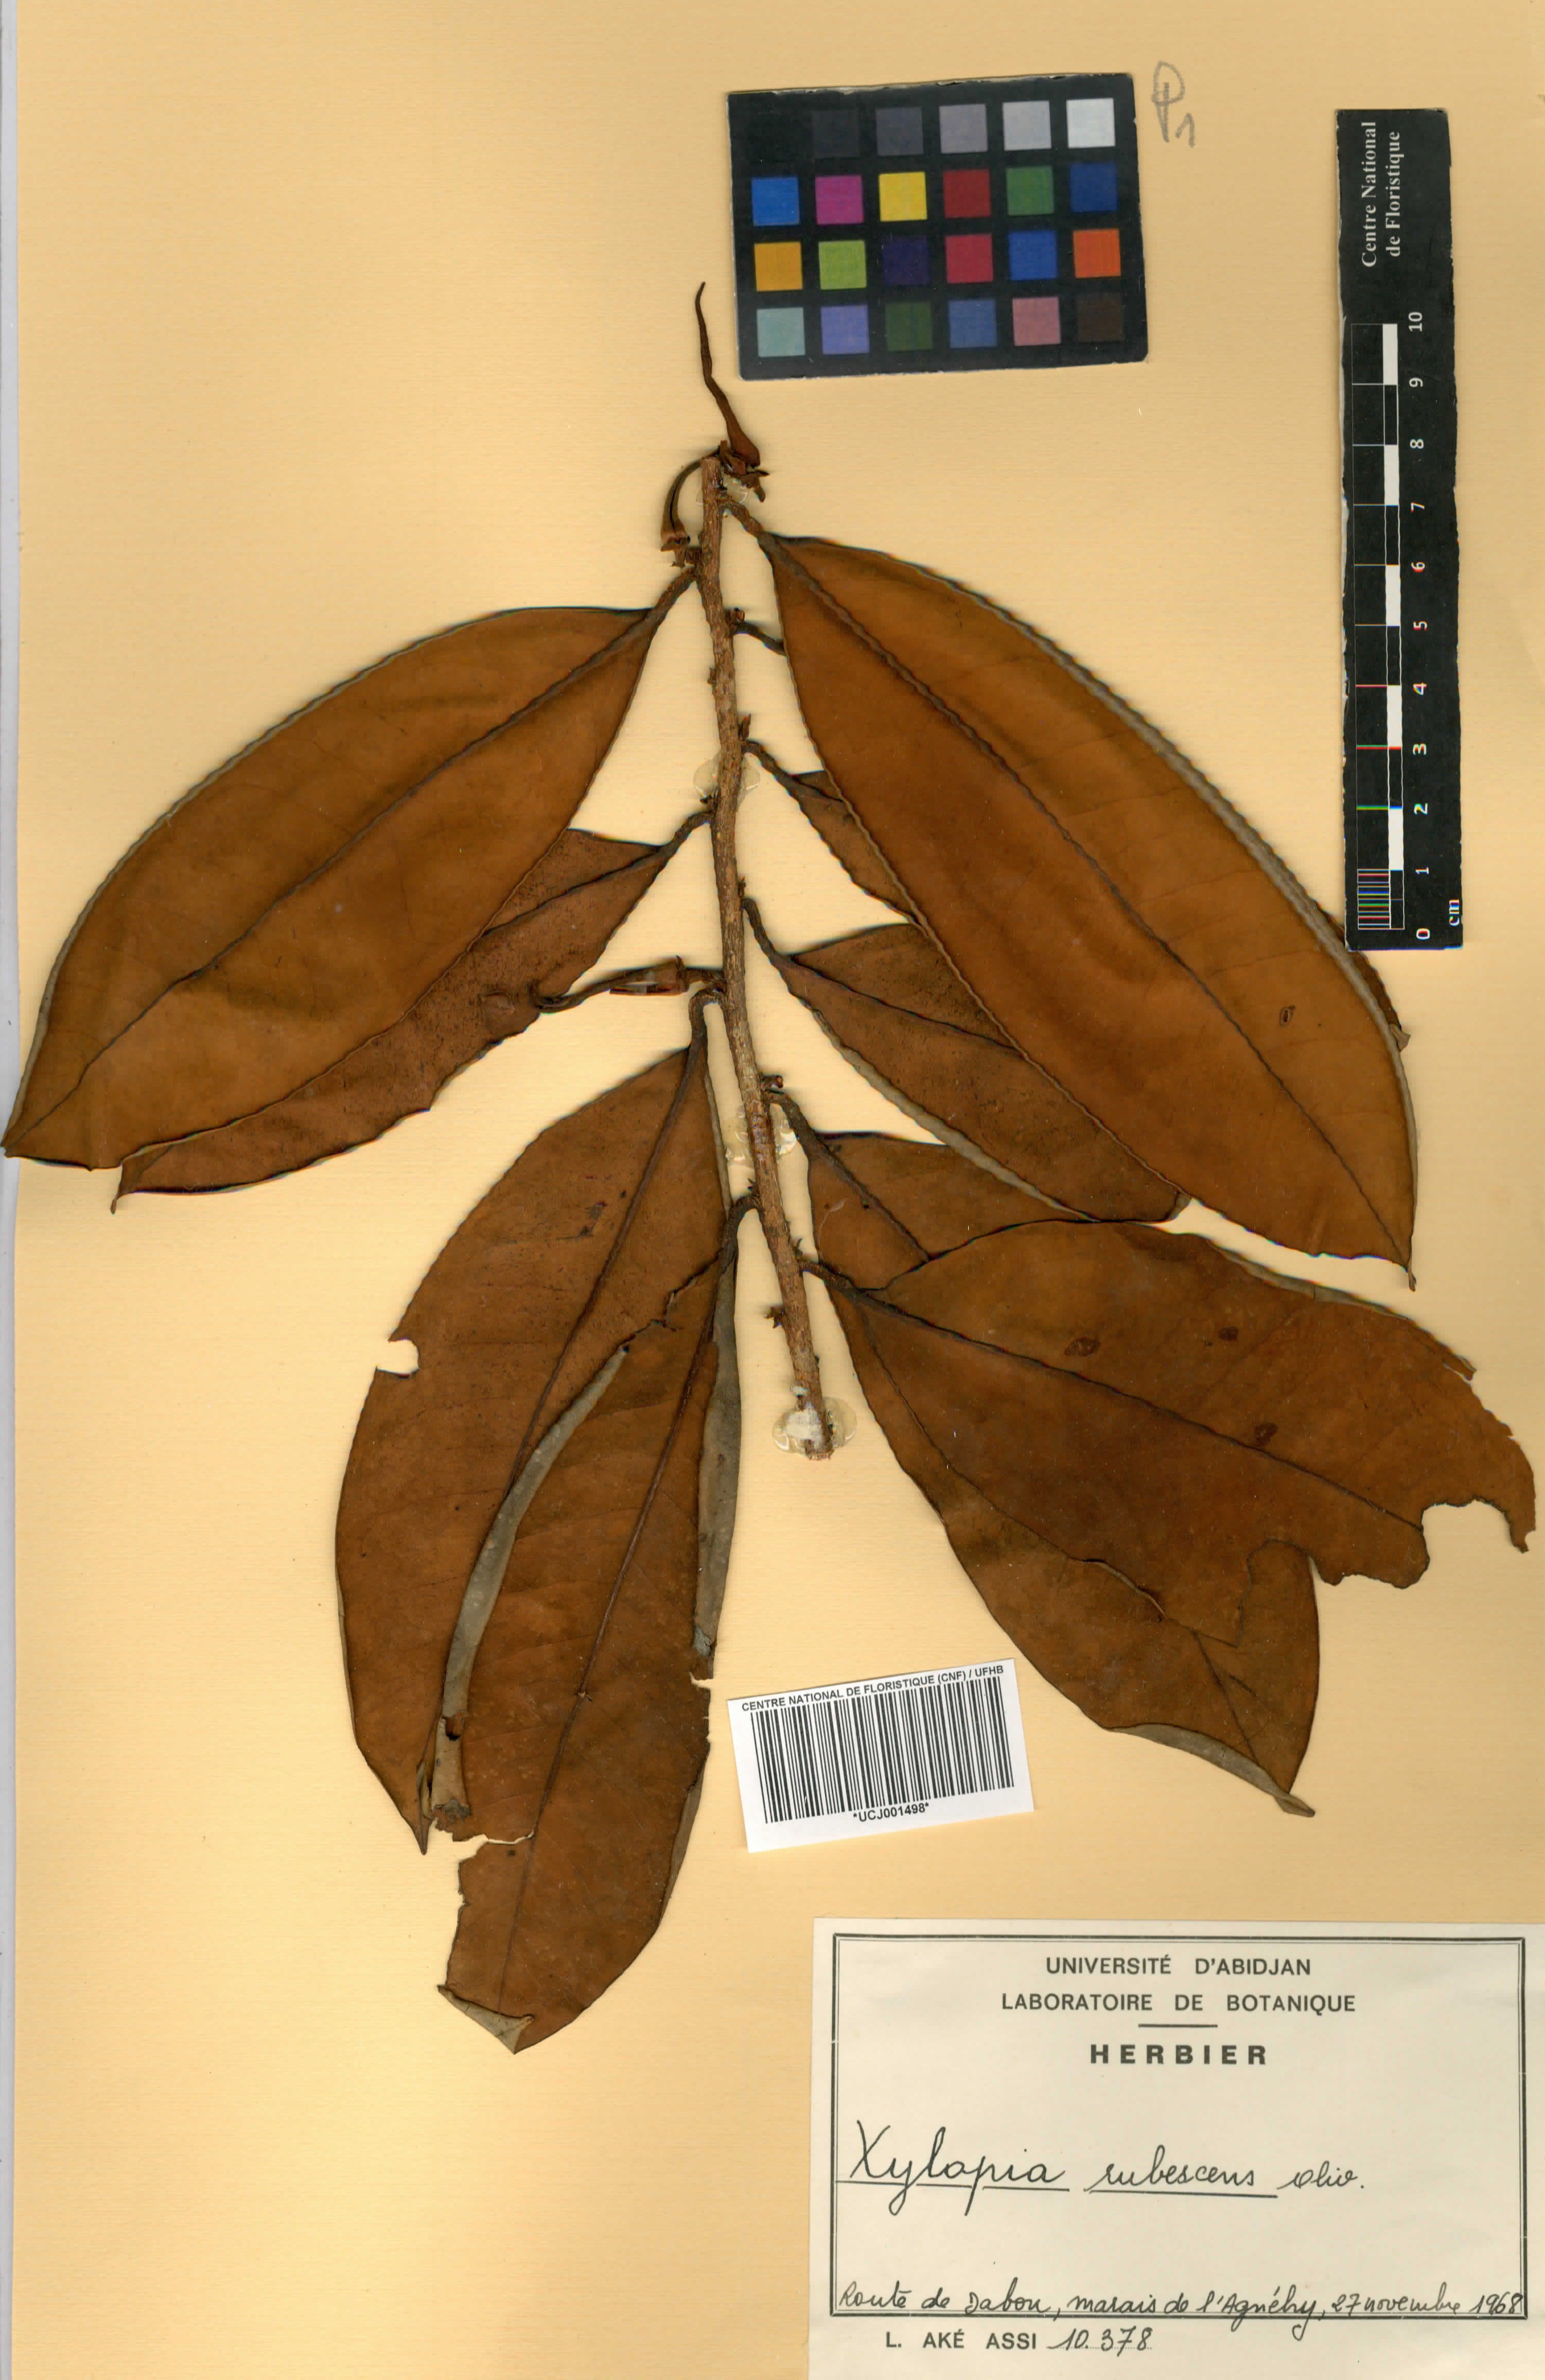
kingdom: Plantae
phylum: Tracheophyta
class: Magnoliopsida
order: Magnoliales
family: Annonaceae
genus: Xylopia
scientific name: Xylopia rubescens
